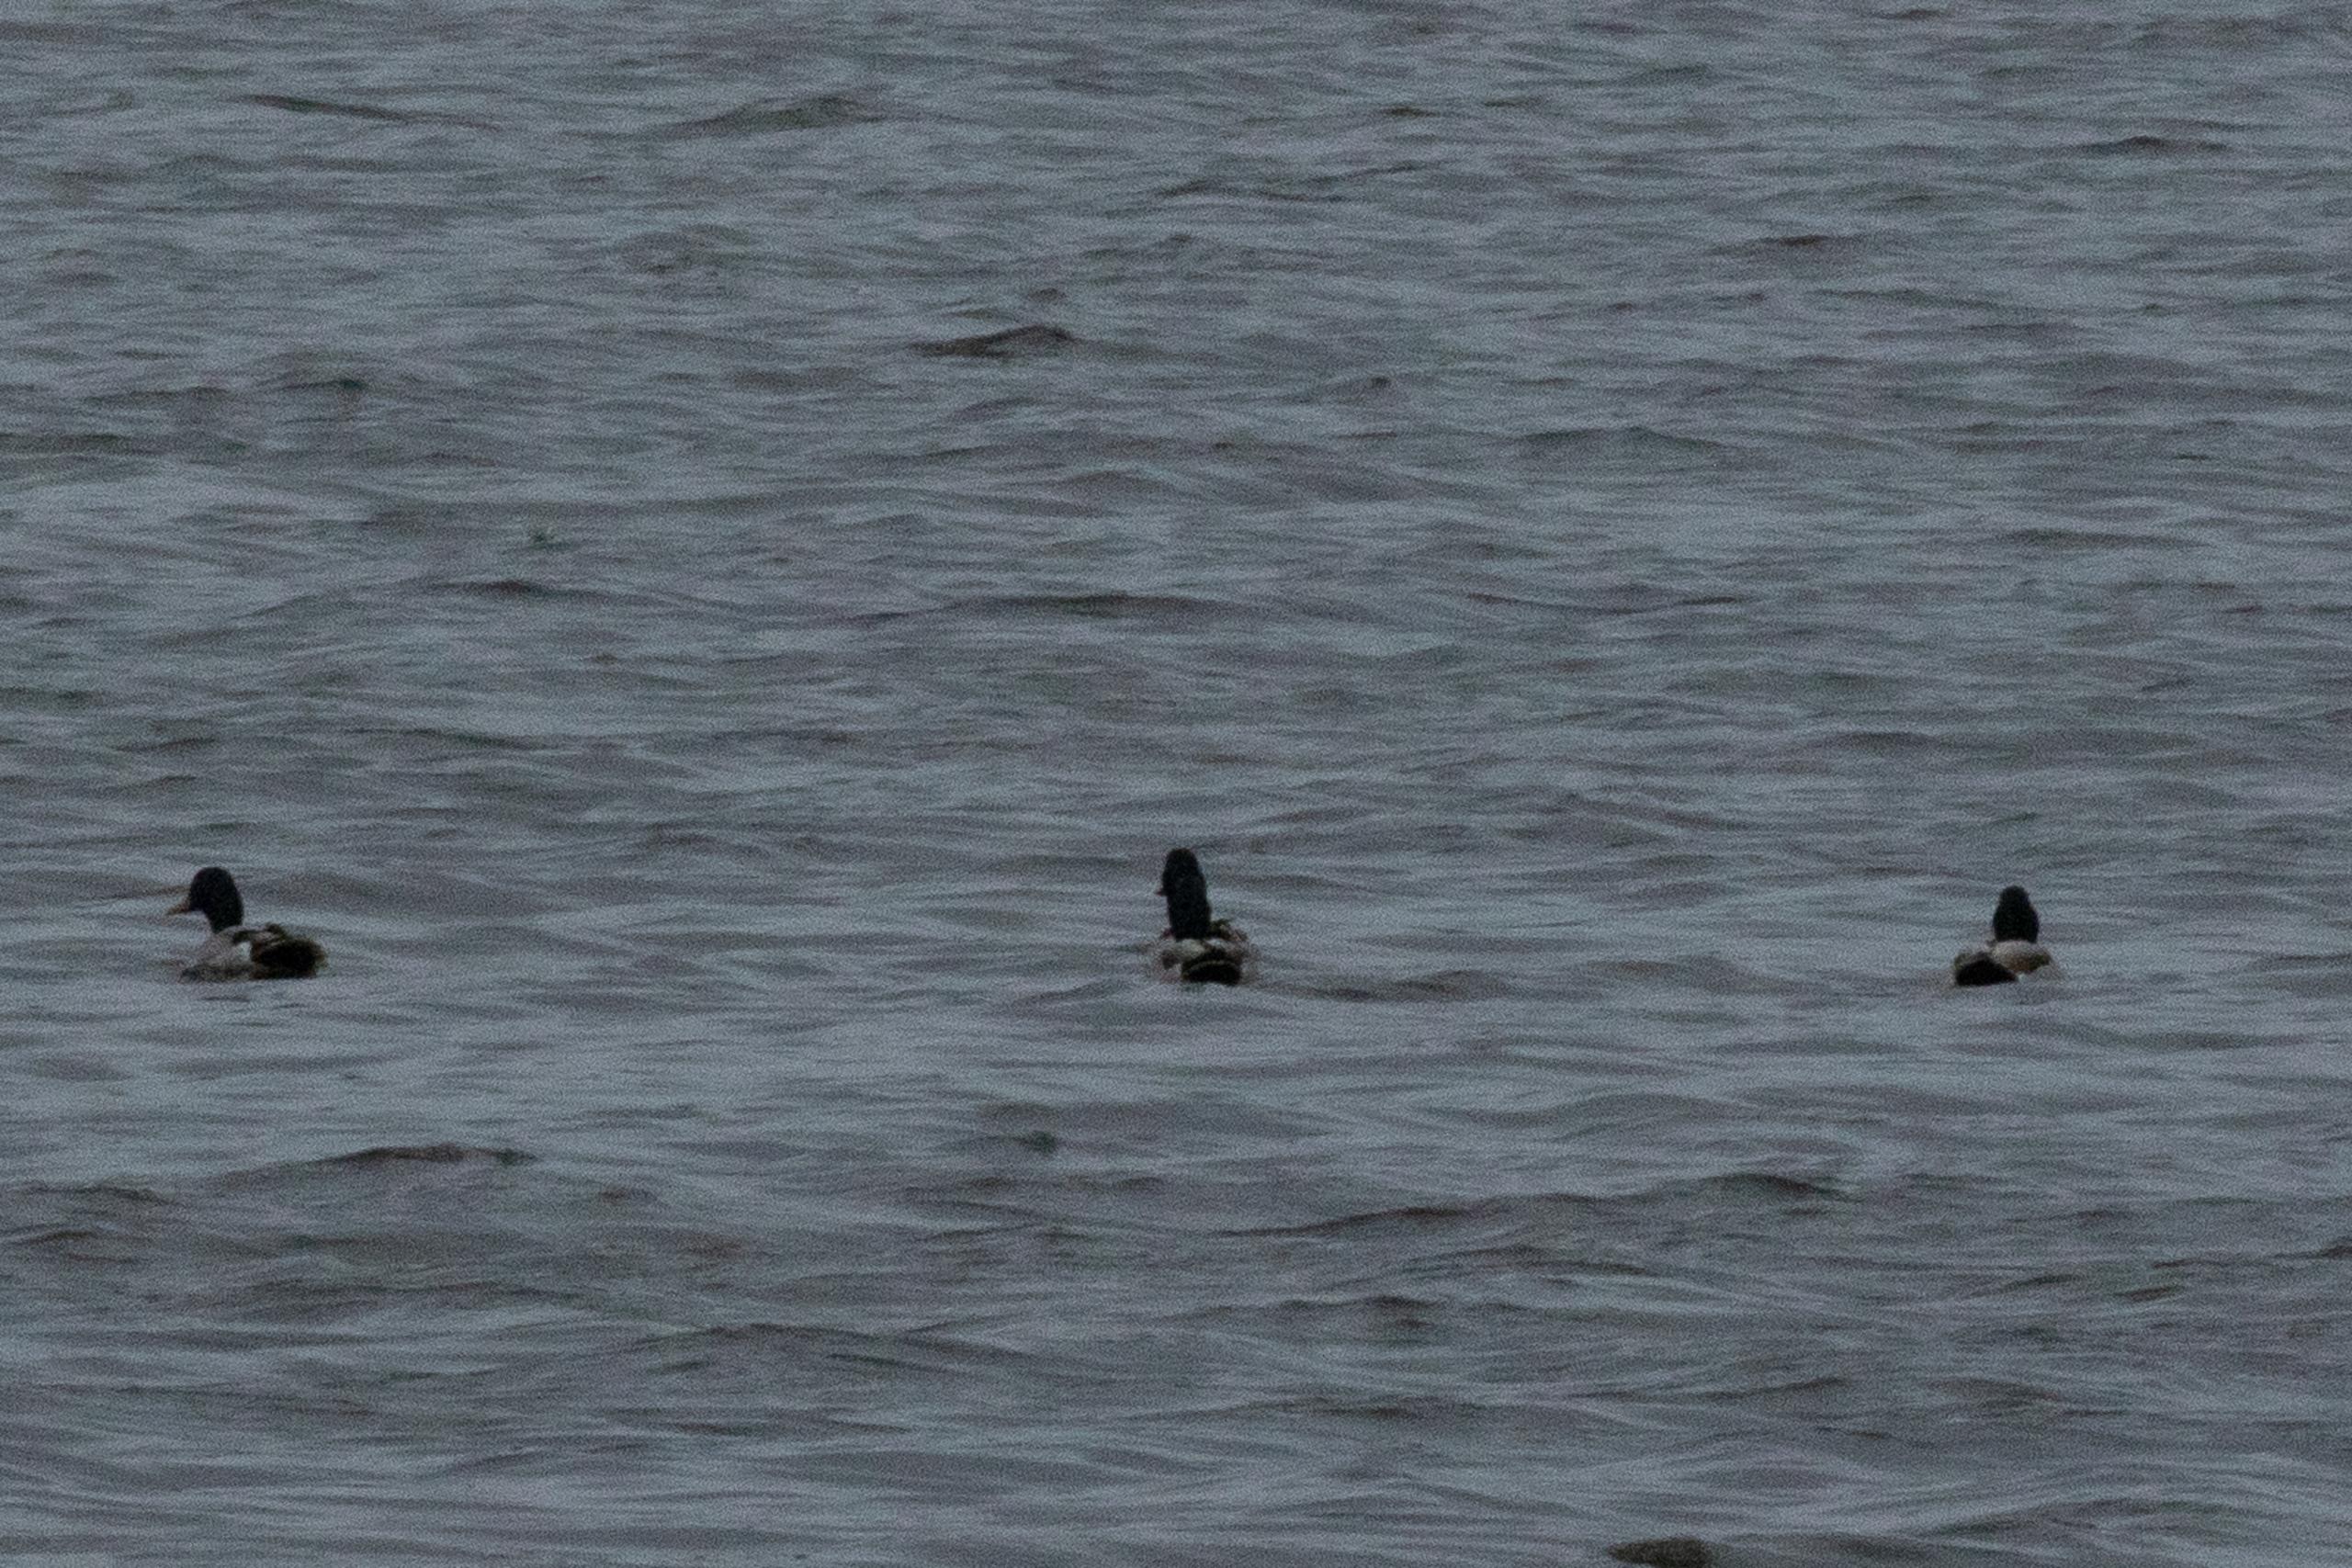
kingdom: Animalia
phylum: Chordata
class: Aves
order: Anseriformes
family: Anatidae
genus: Anas
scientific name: Anas platyrhynchos
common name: Gråand
